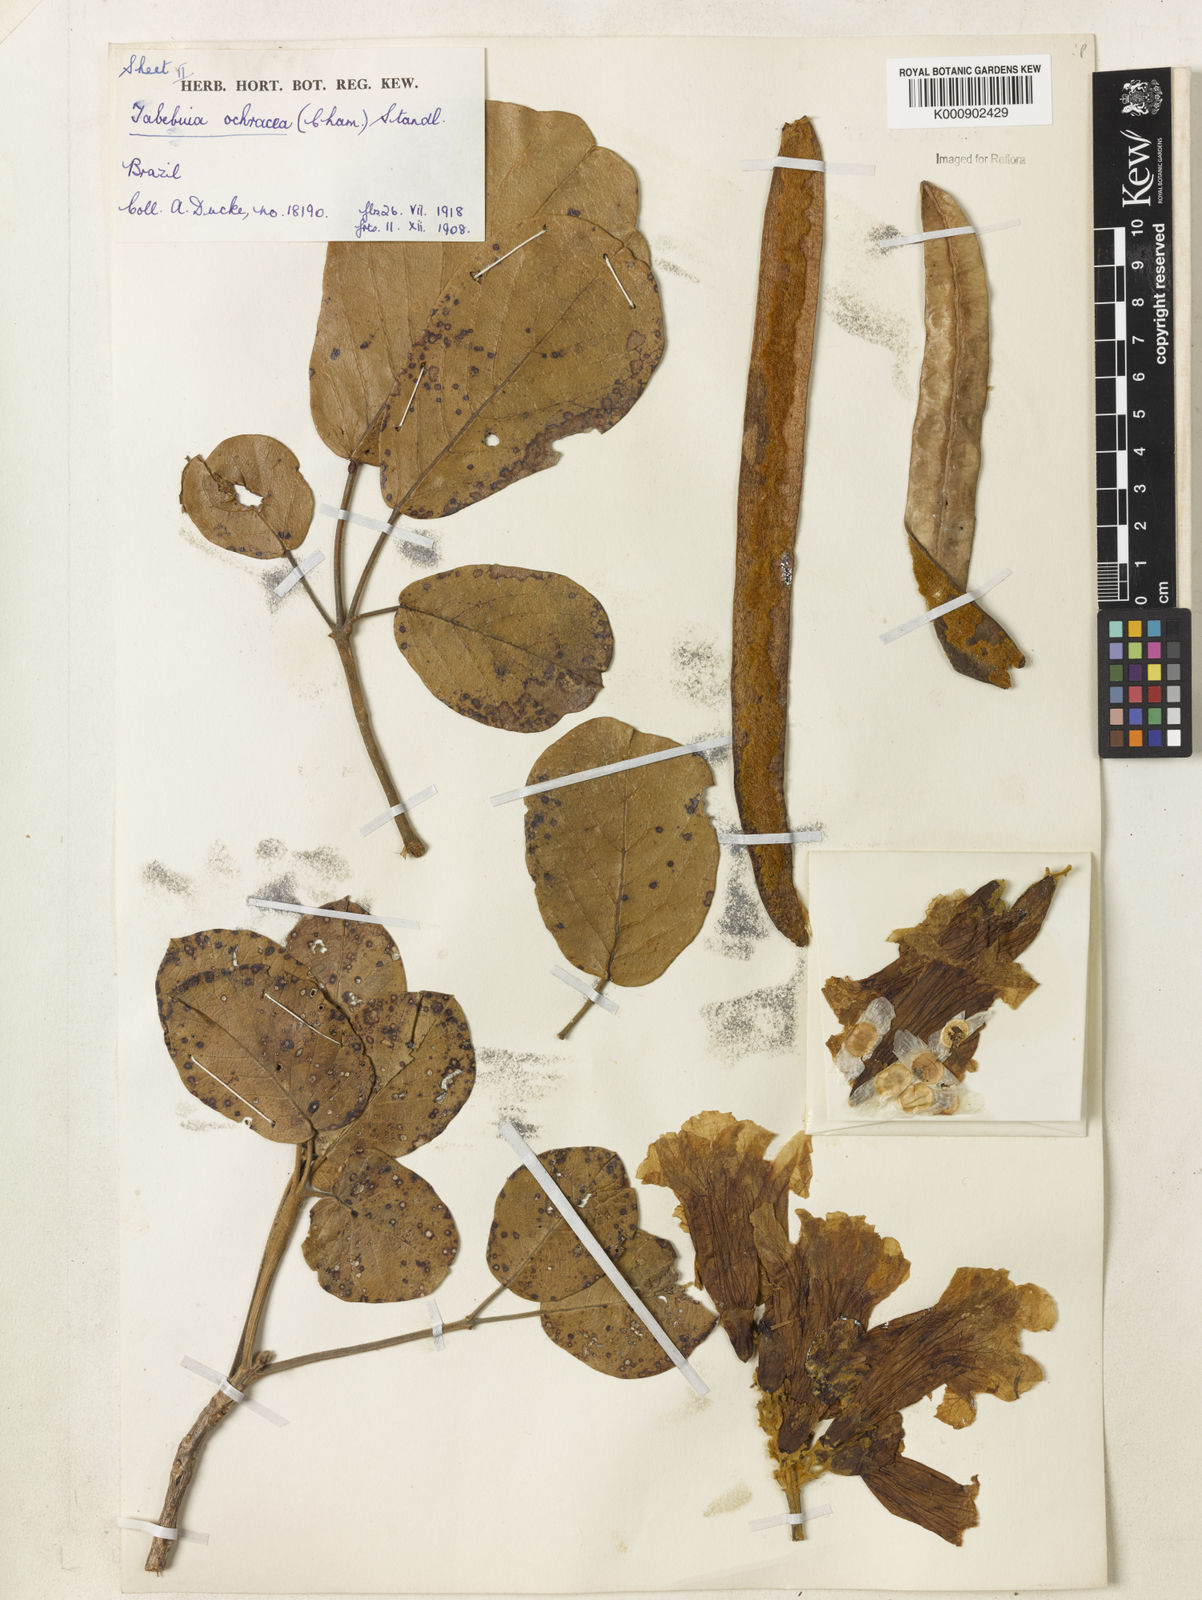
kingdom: Plantae
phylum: Tracheophyta
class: Magnoliopsida
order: Lamiales
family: Bignoniaceae
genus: Handroanthus
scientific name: Handroanthus ochraceus
